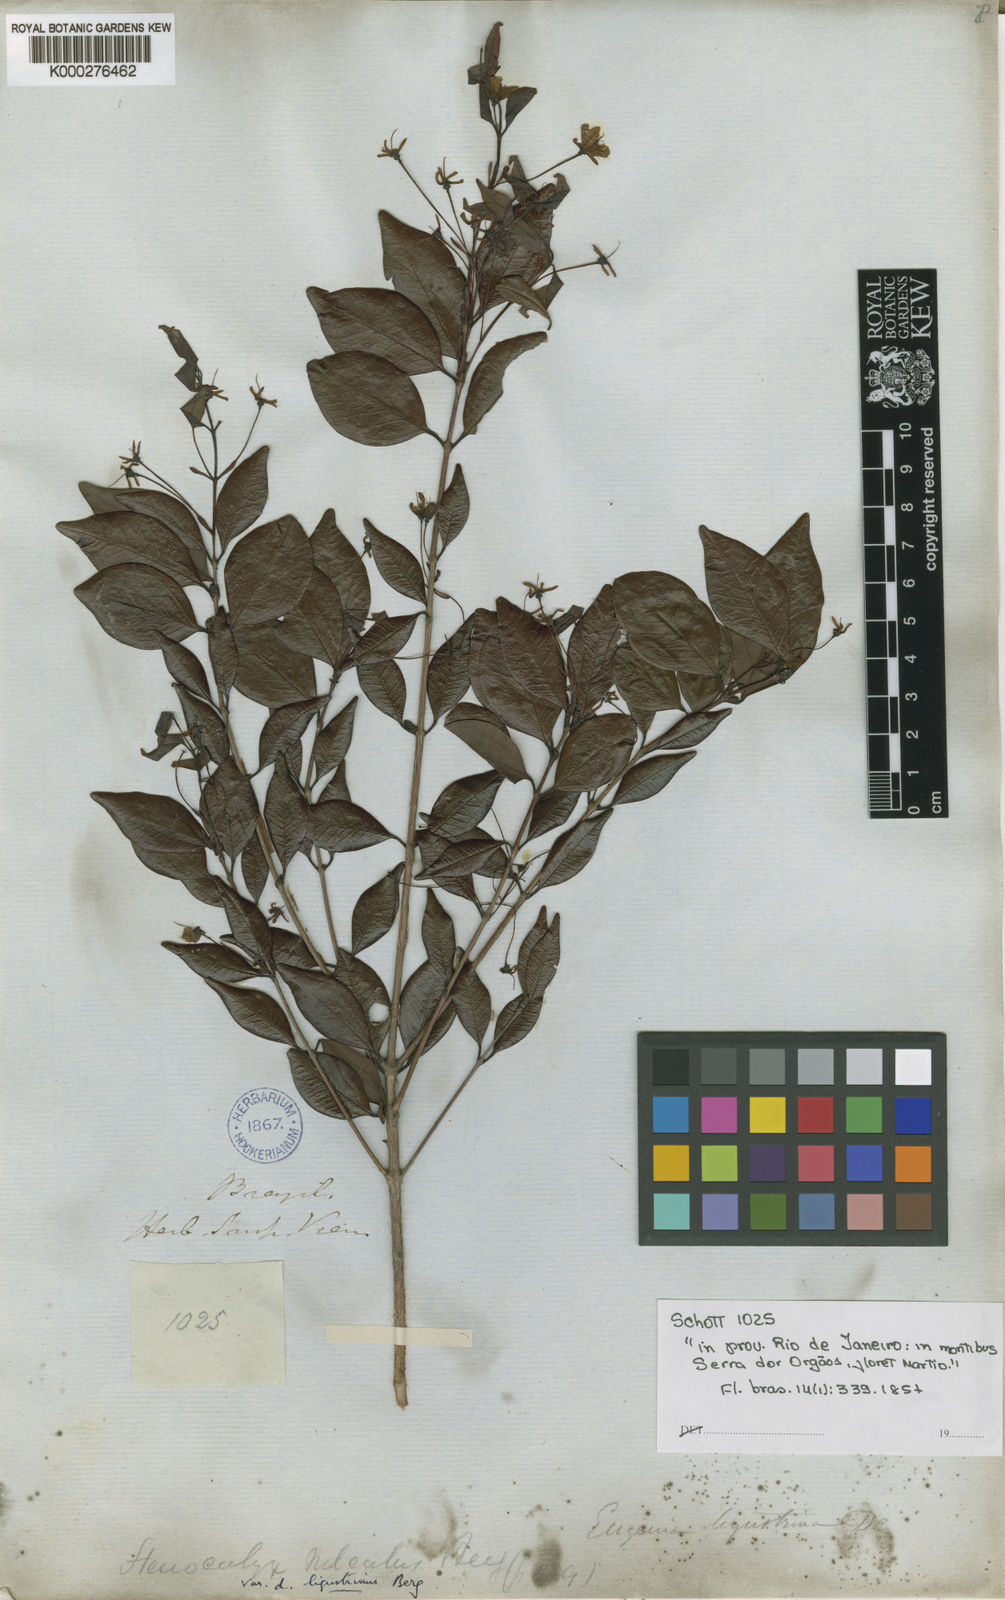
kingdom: Plantae
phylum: Tracheophyta
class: Magnoliopsida
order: Myrtales
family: Myrtaceae
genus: Eugenia
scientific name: Eugenia sulcata
